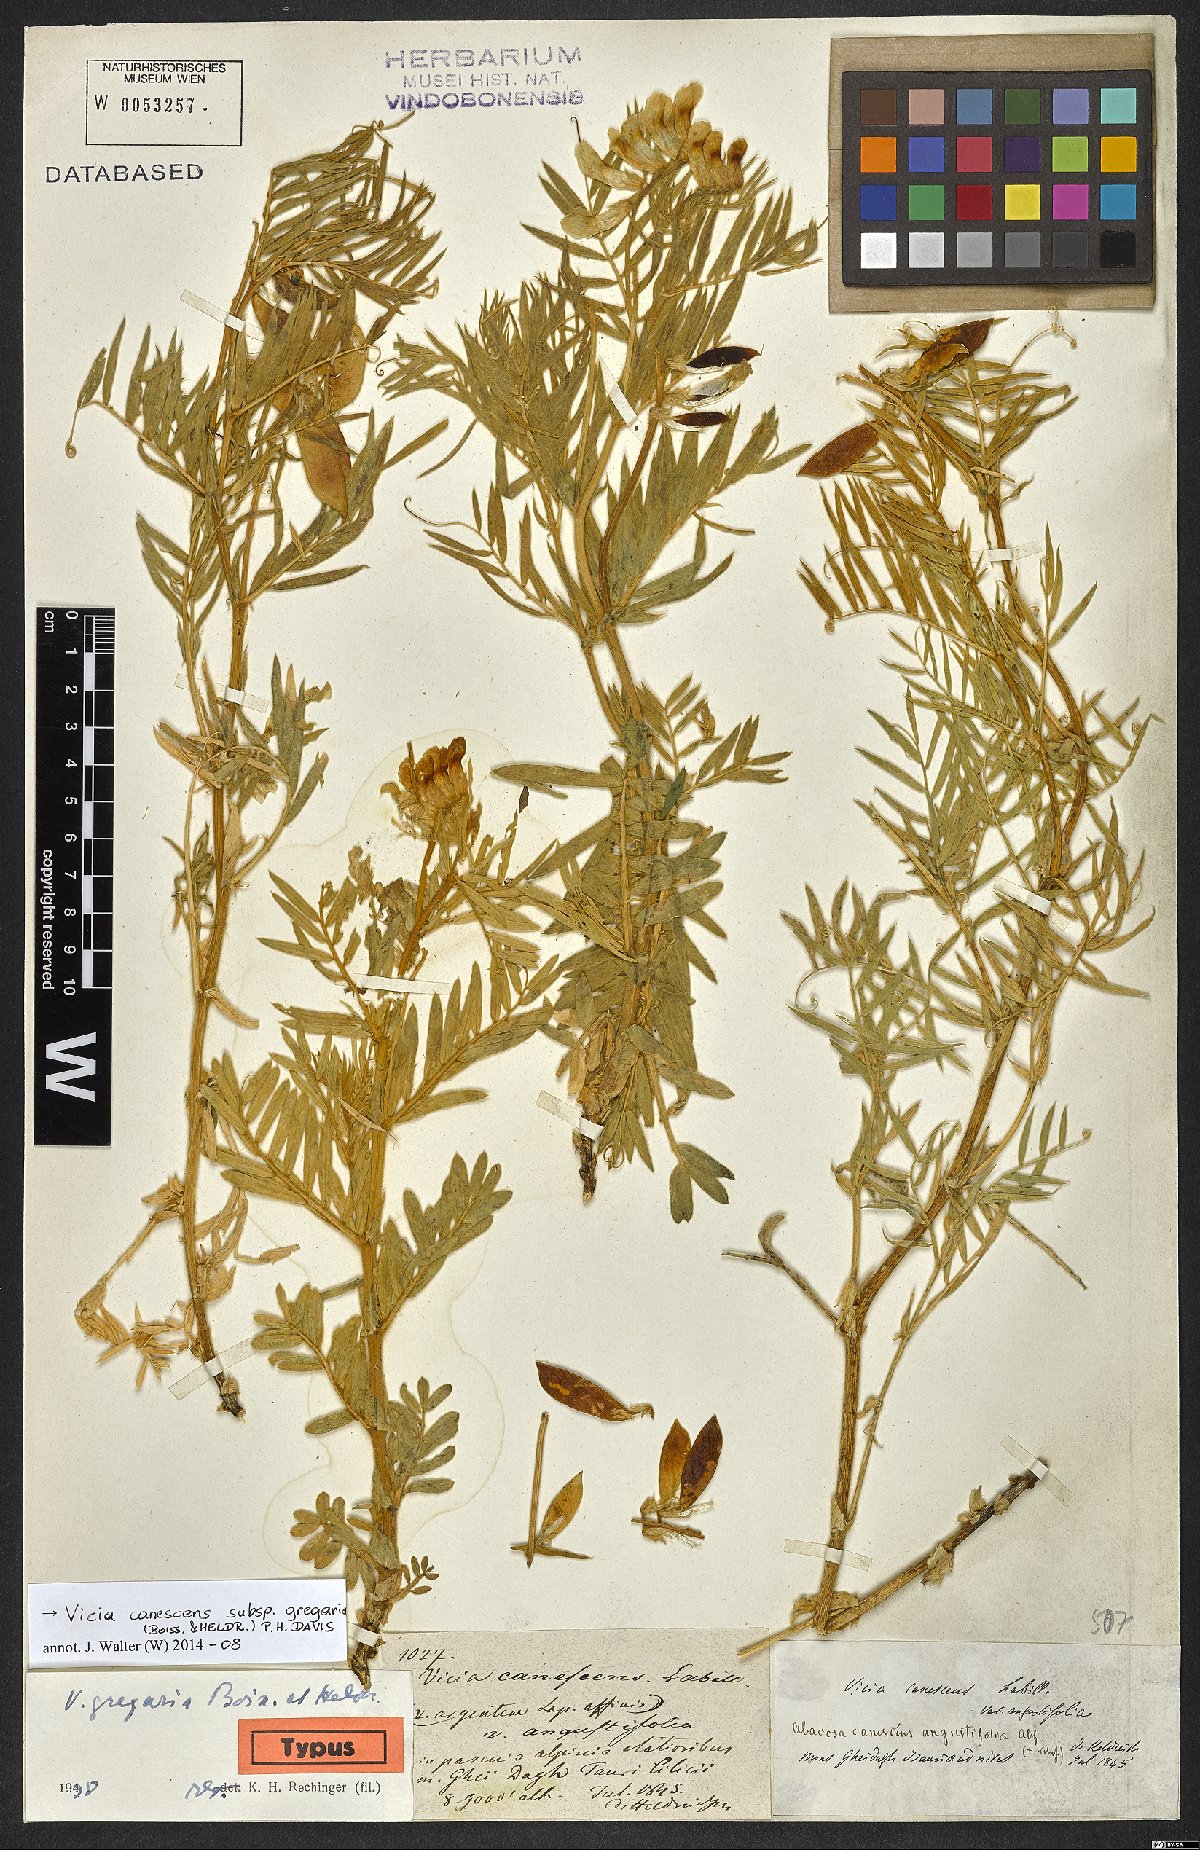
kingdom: Plantae
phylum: Tracheophyta
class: Magnoliopsida
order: Fabales
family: Fabaceae
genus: Vicia
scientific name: Vicia canescens
